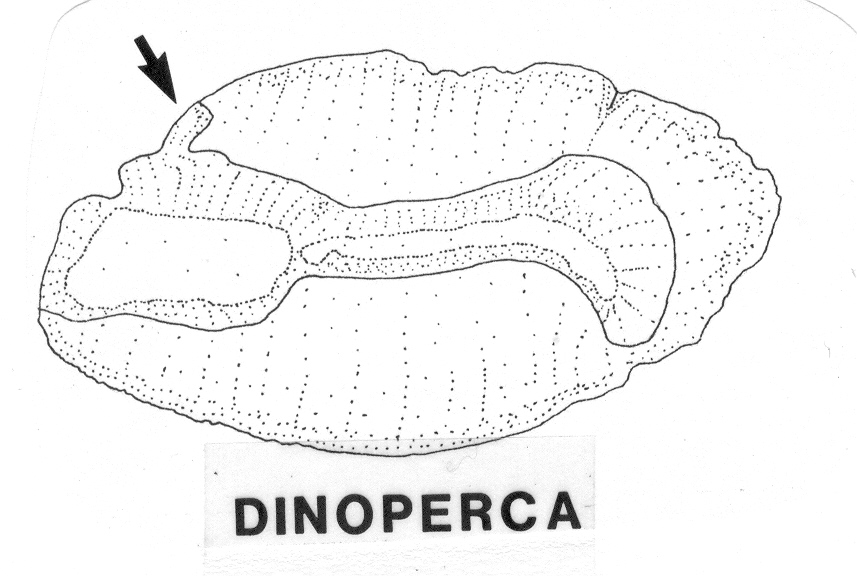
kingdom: Animalia
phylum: Chordata
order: Perciformes
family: Dinopercidae
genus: Dinoperca
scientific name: Dinoperca petersi
